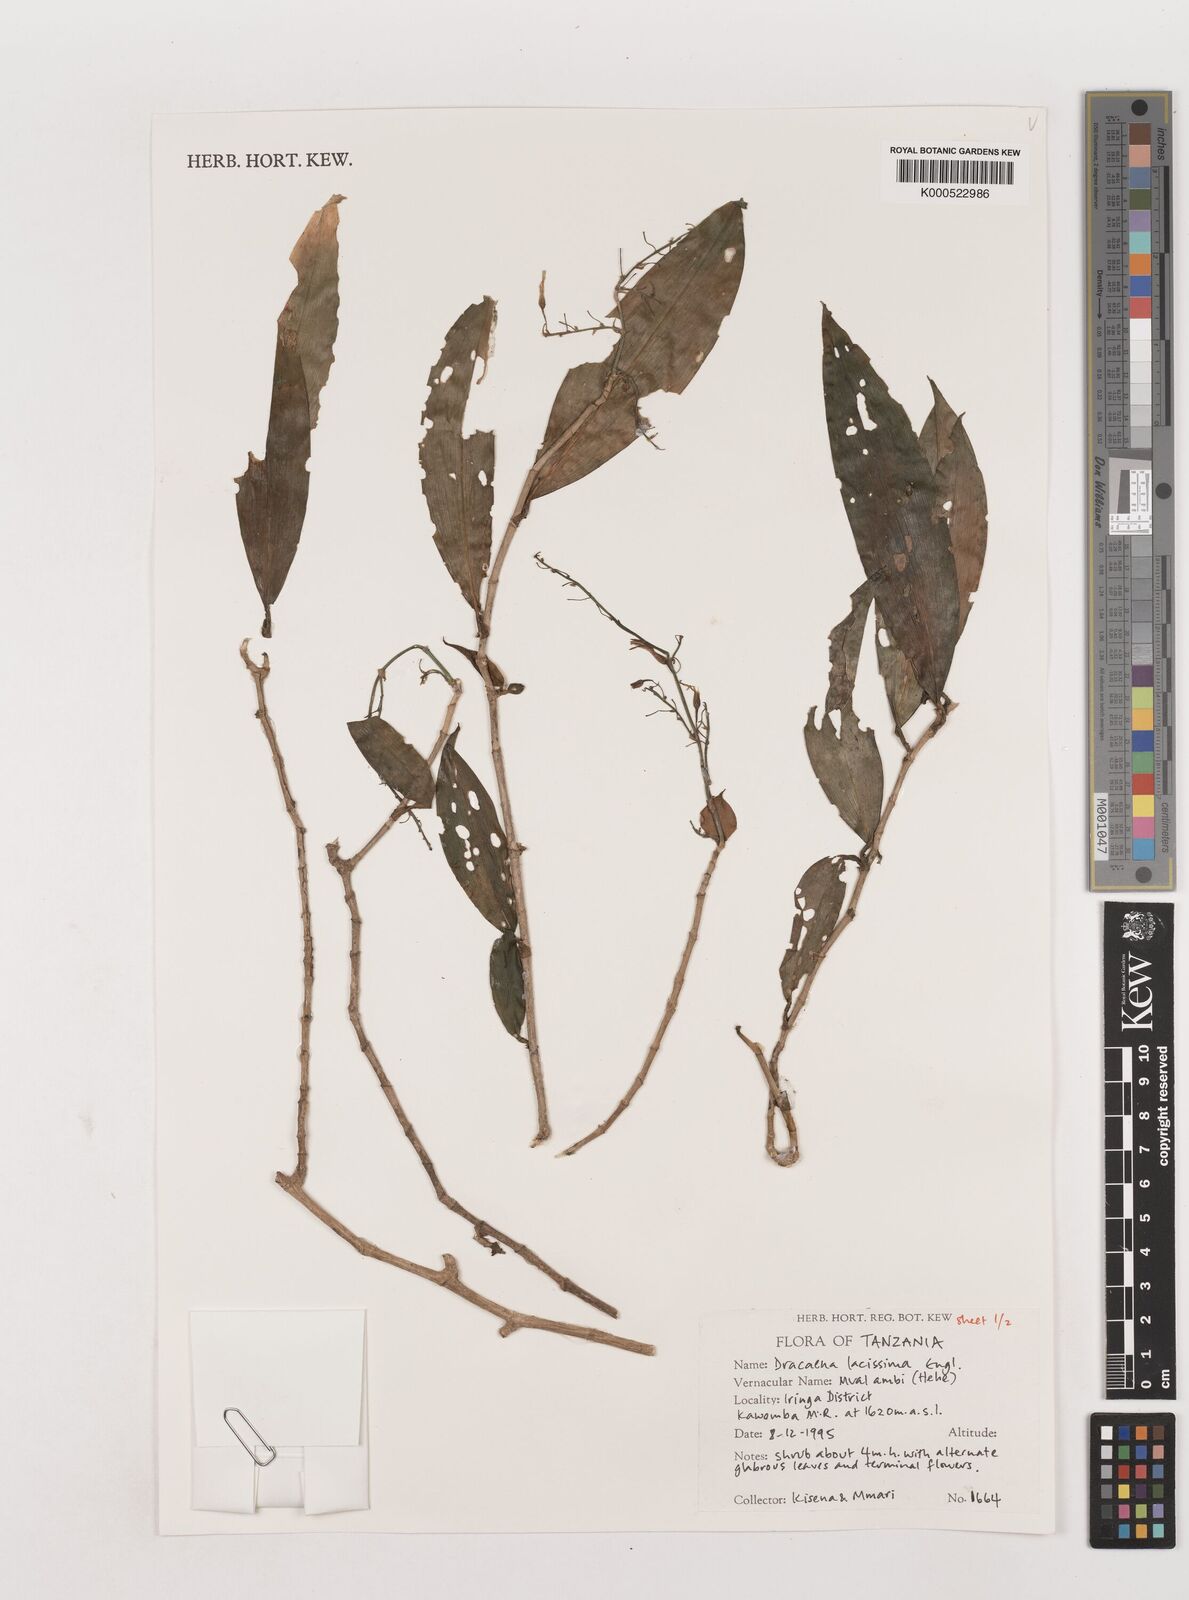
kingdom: Plantae
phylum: Tracheophyta
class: Liliopsida
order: Asparagales
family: Asparagaceae
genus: Dracaena
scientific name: Dracaena laxissima
